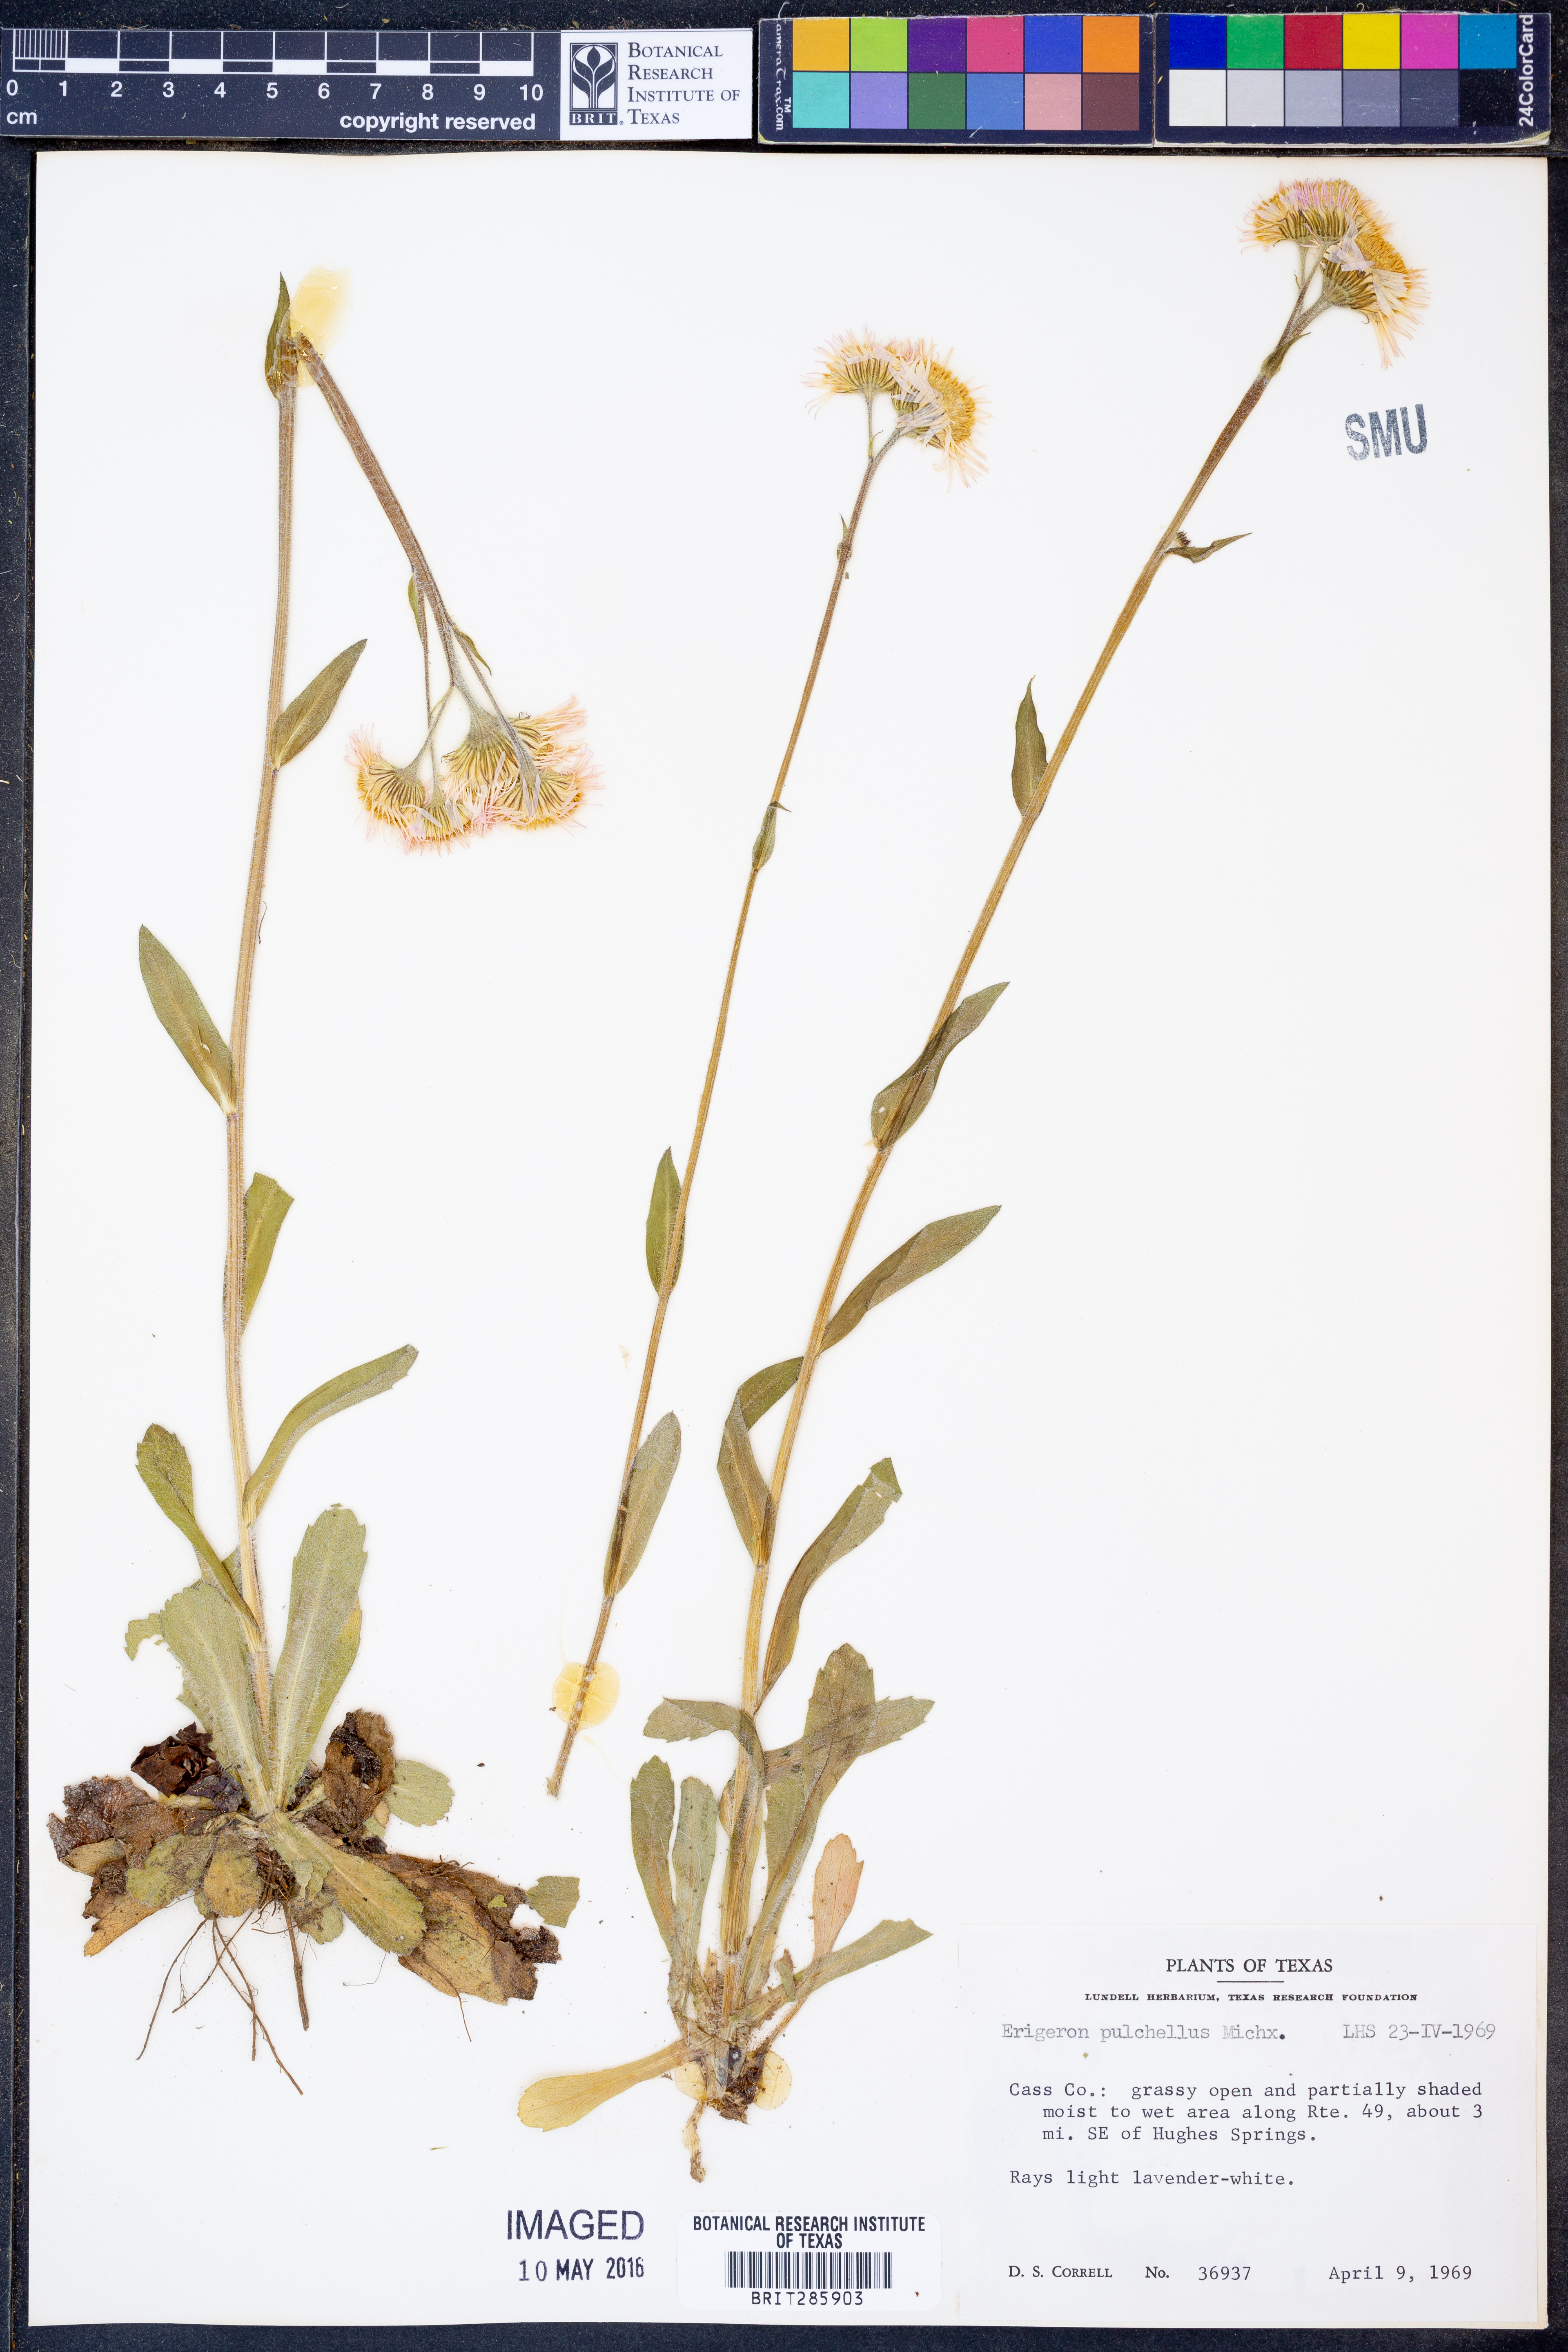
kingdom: Plantae
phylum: Tracheophyta
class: Magnoliopsida
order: Asterales
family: Asteraceae
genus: Erigeron
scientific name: Erigeron pulchellus
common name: Hairy fleabane
